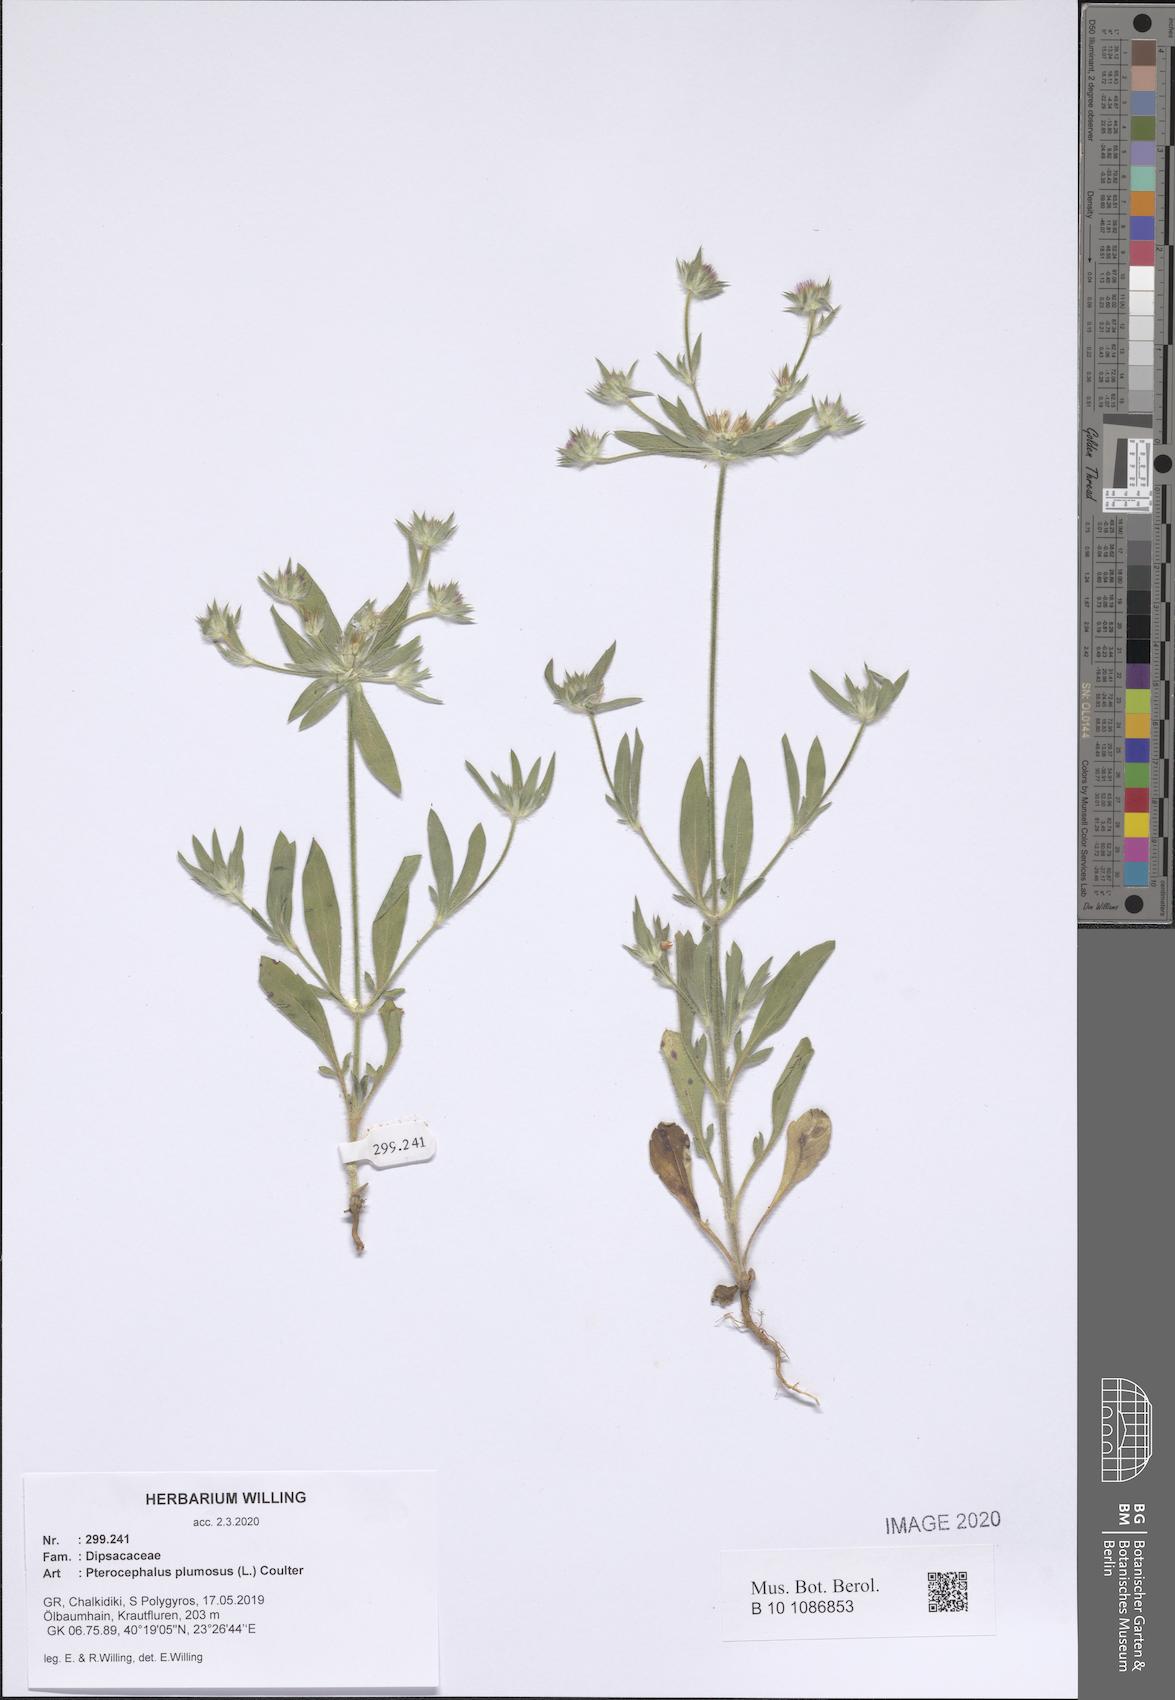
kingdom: Plantae
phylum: Tracheophyta
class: Magnoliopsida
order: Dipsacales
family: Caprifoliaceae
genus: Pterocephalus
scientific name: Pterocephalus plumosus
